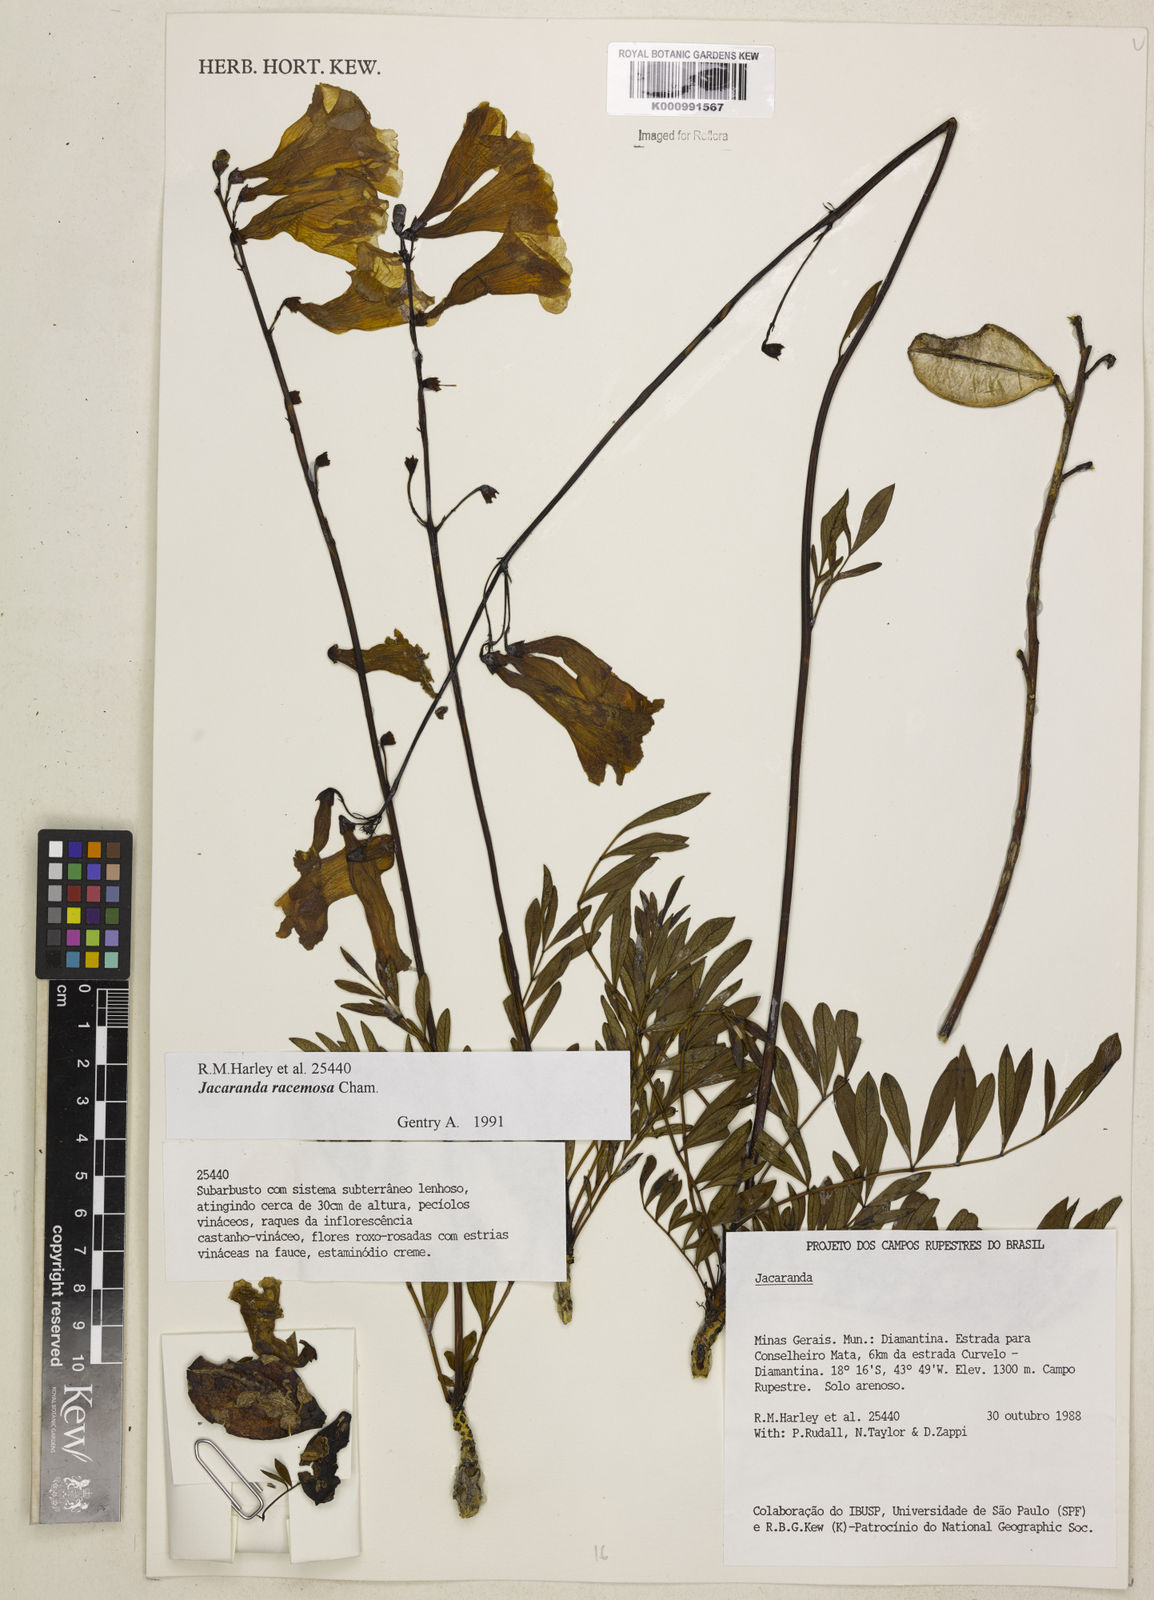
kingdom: Plantae
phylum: Tracheophyta
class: Magnoliopsida
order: Lamiales
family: Bignoniaceae
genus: Jacaranda
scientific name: Jacaranda racemosa
